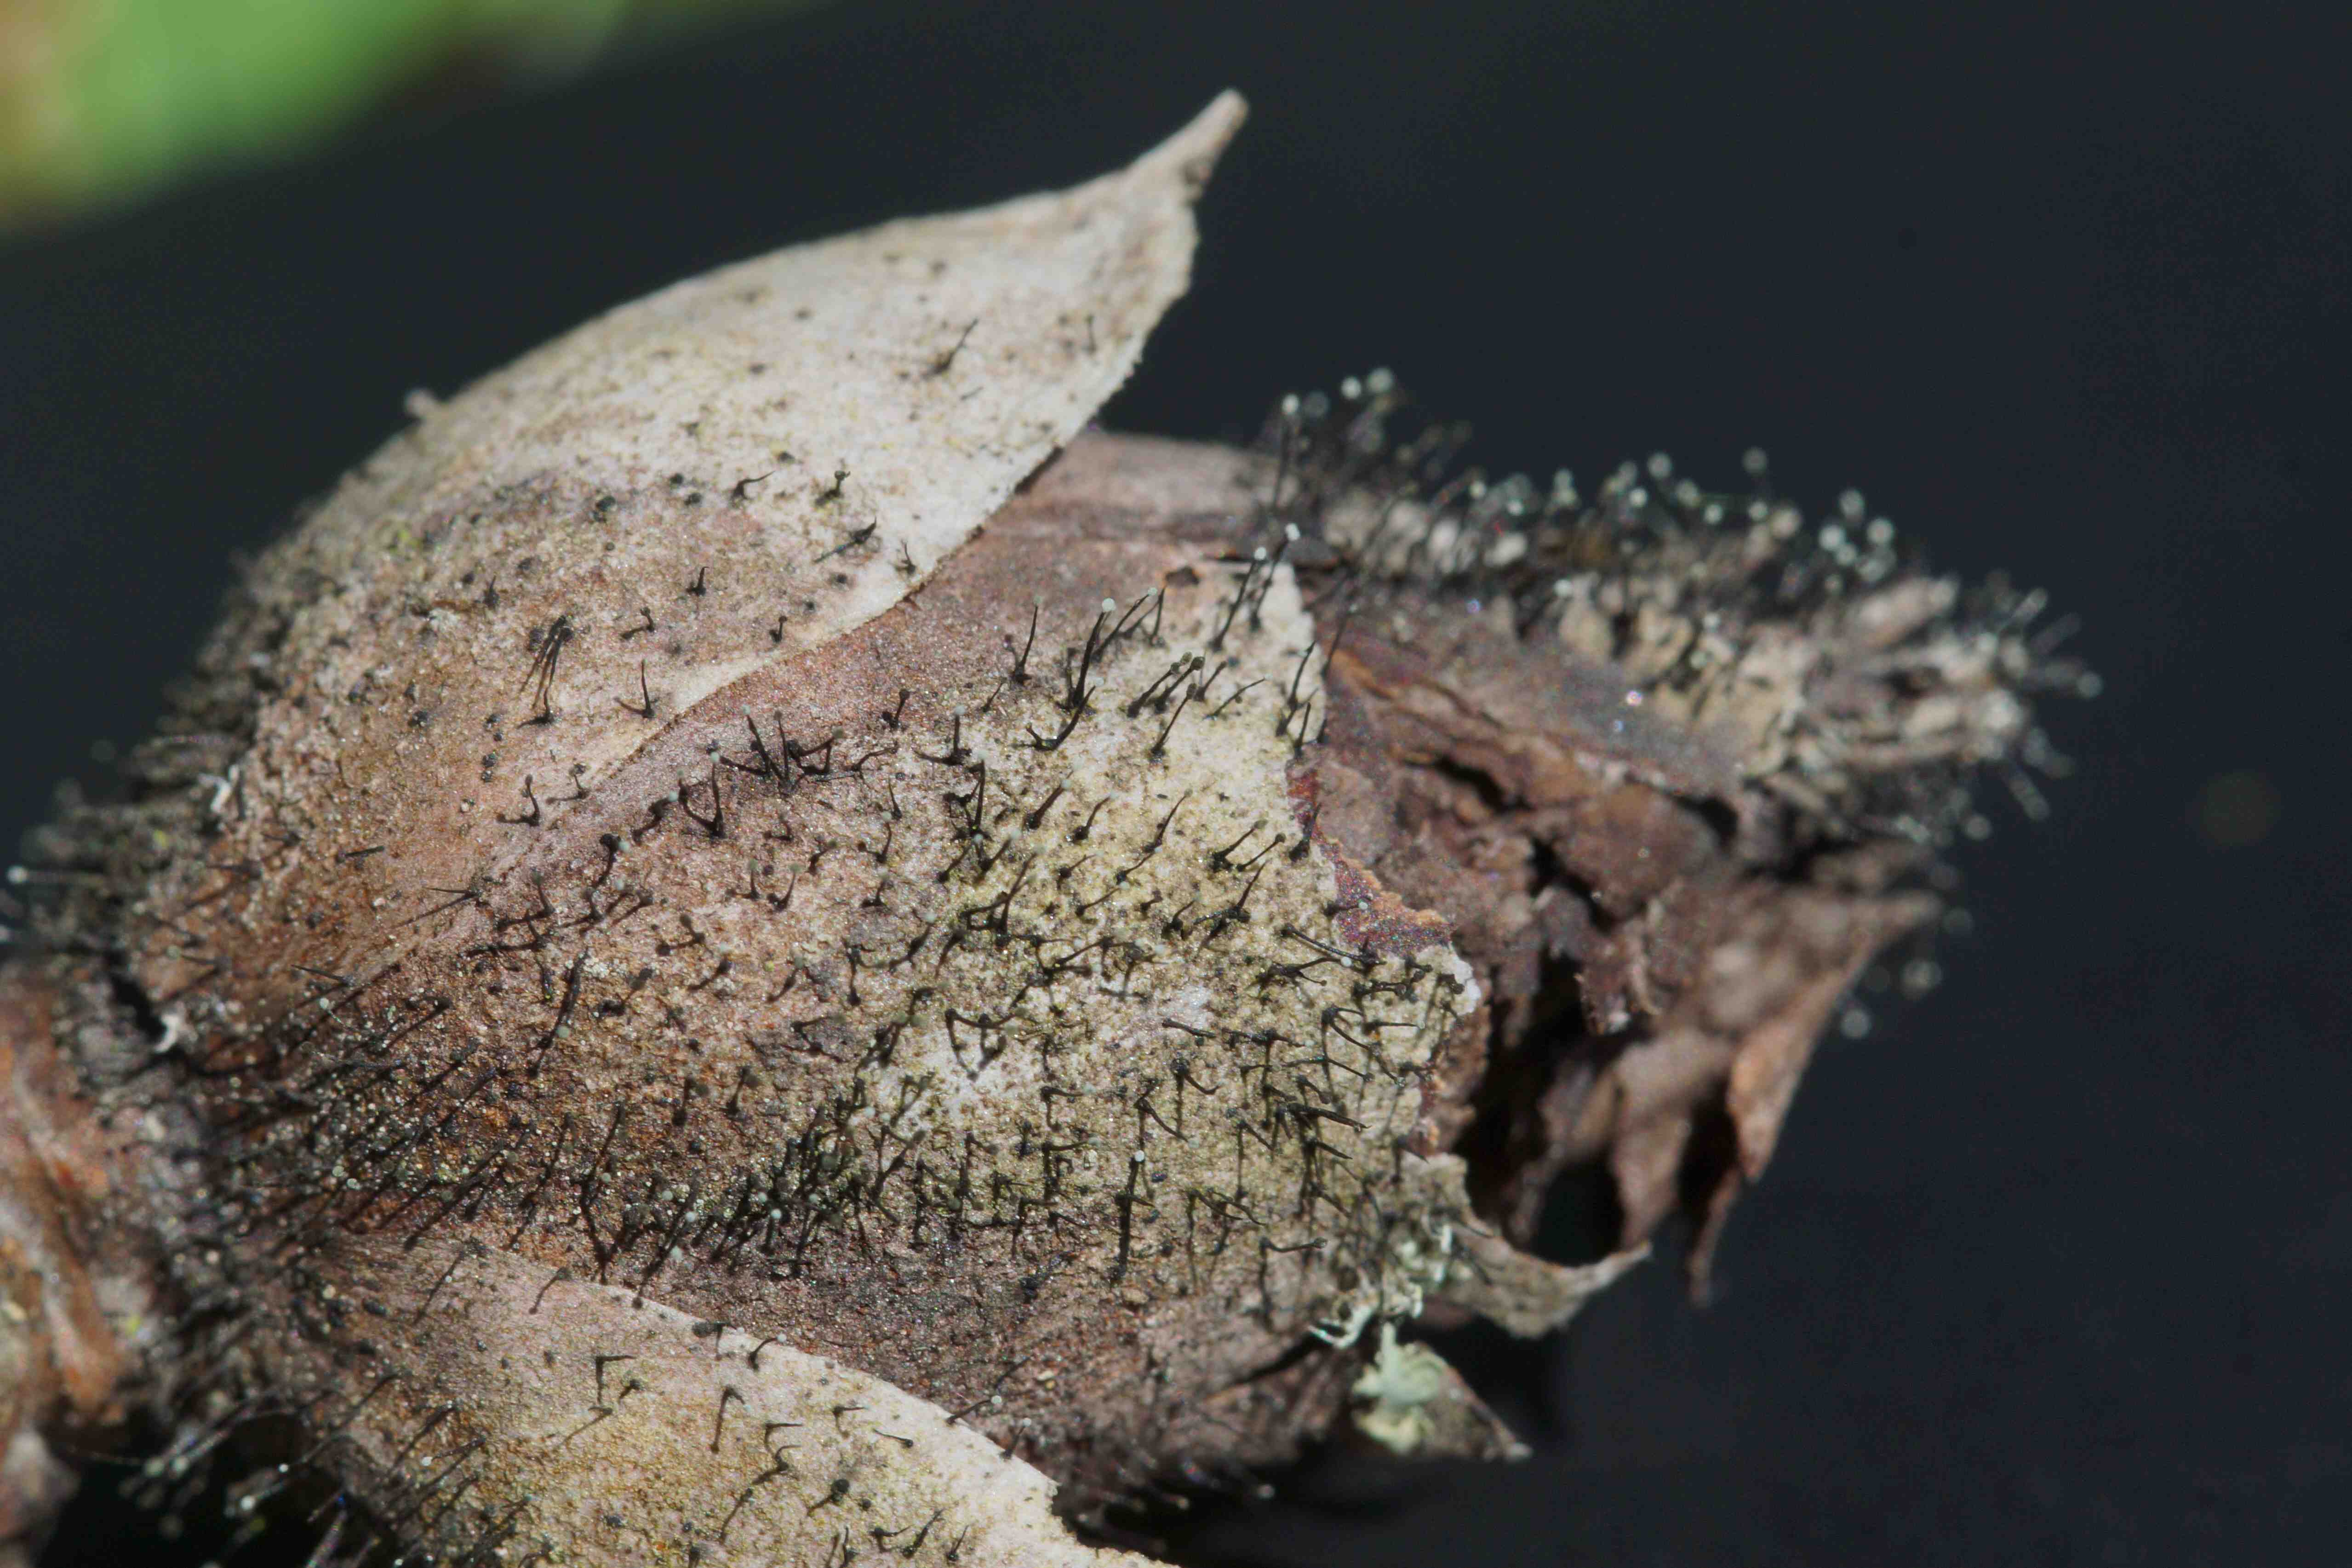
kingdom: Fungi
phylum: Ascomycota
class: Dothideomycetes
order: Pleosporales
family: Melanommataceae
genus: Seifertia
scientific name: Seifertia azaleae
